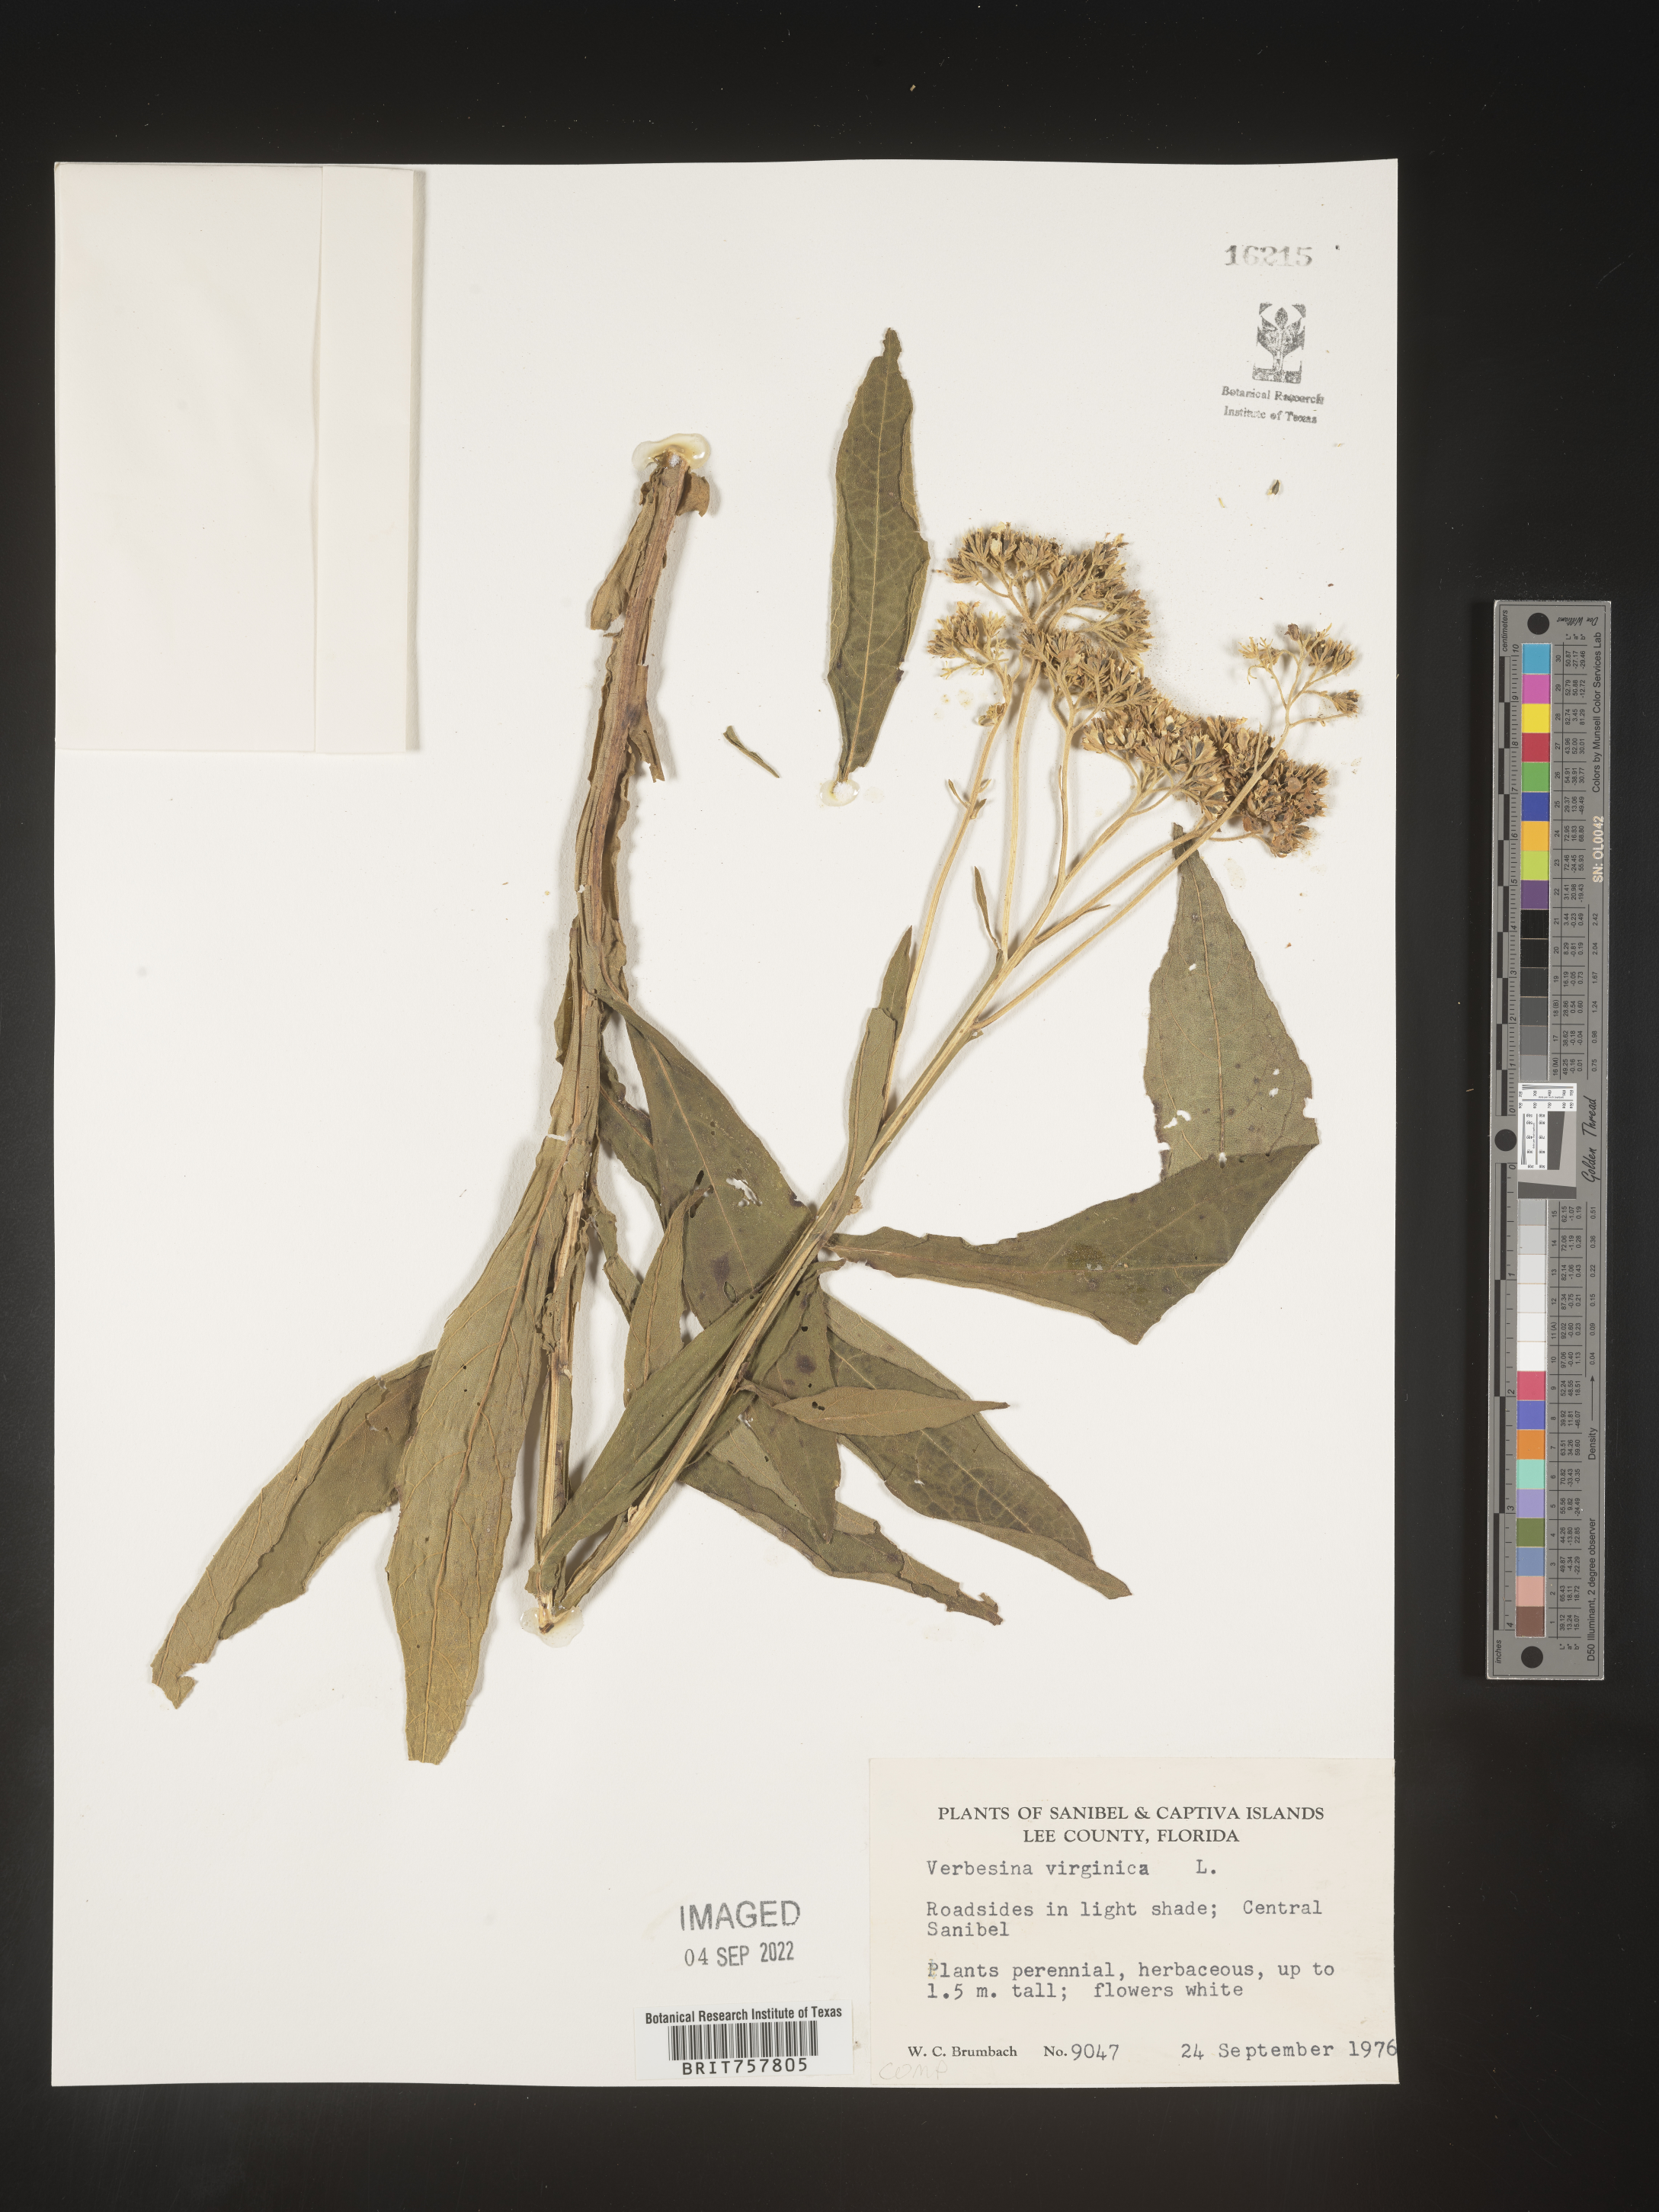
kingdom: Plantae
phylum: Tracheophyta
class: Magnoliopsida
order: Asterales
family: Asteraceae
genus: Verbesina
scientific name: Verbesina virginica
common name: Frostweed
